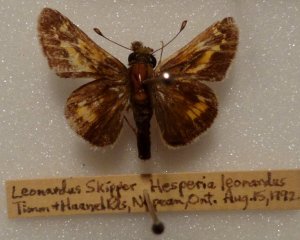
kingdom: Animalia
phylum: Arthropoda
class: Insecta
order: Lepidoptera
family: Hesperiidae
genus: Hesperia
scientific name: Hesperia leonardus
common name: Leonard's Skipper
